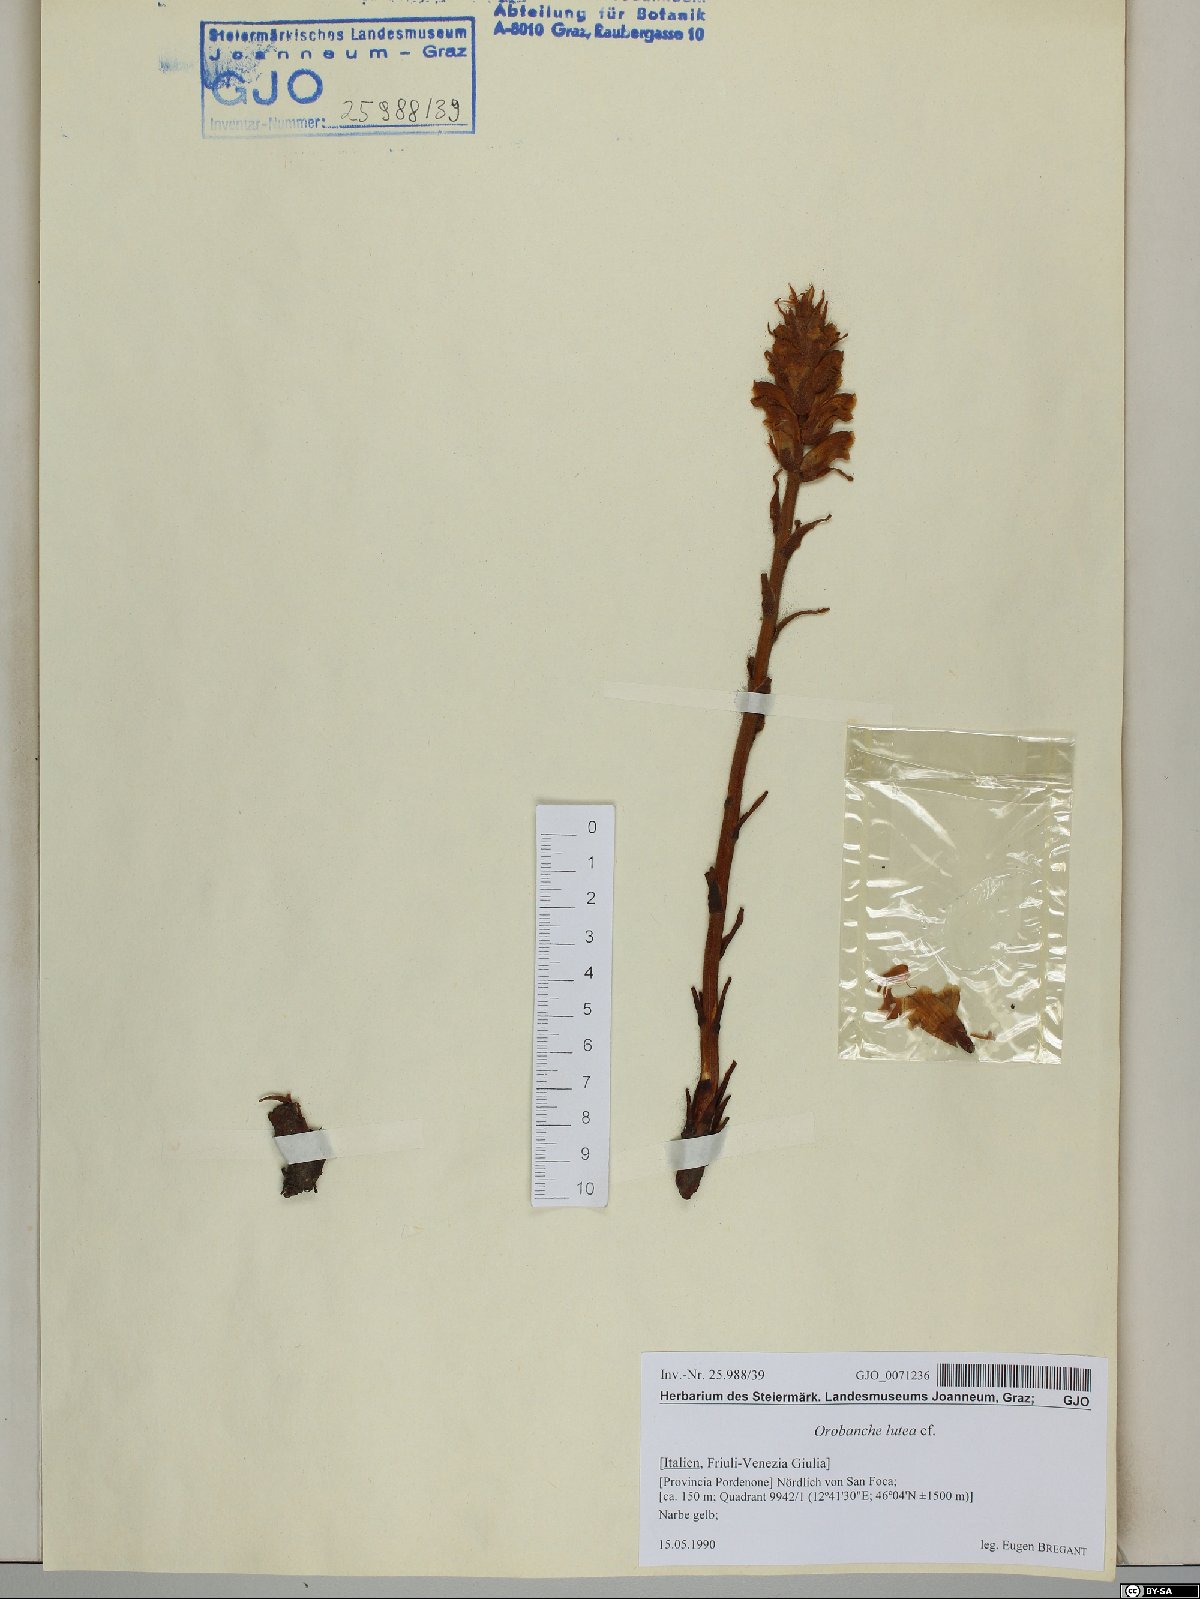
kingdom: Plantae
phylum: Tracheophyta
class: Magnoliopsida
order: Lamiales
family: Orobanchaceae
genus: Orobanche
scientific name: Orobanche lutea
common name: Yellow broomrape
